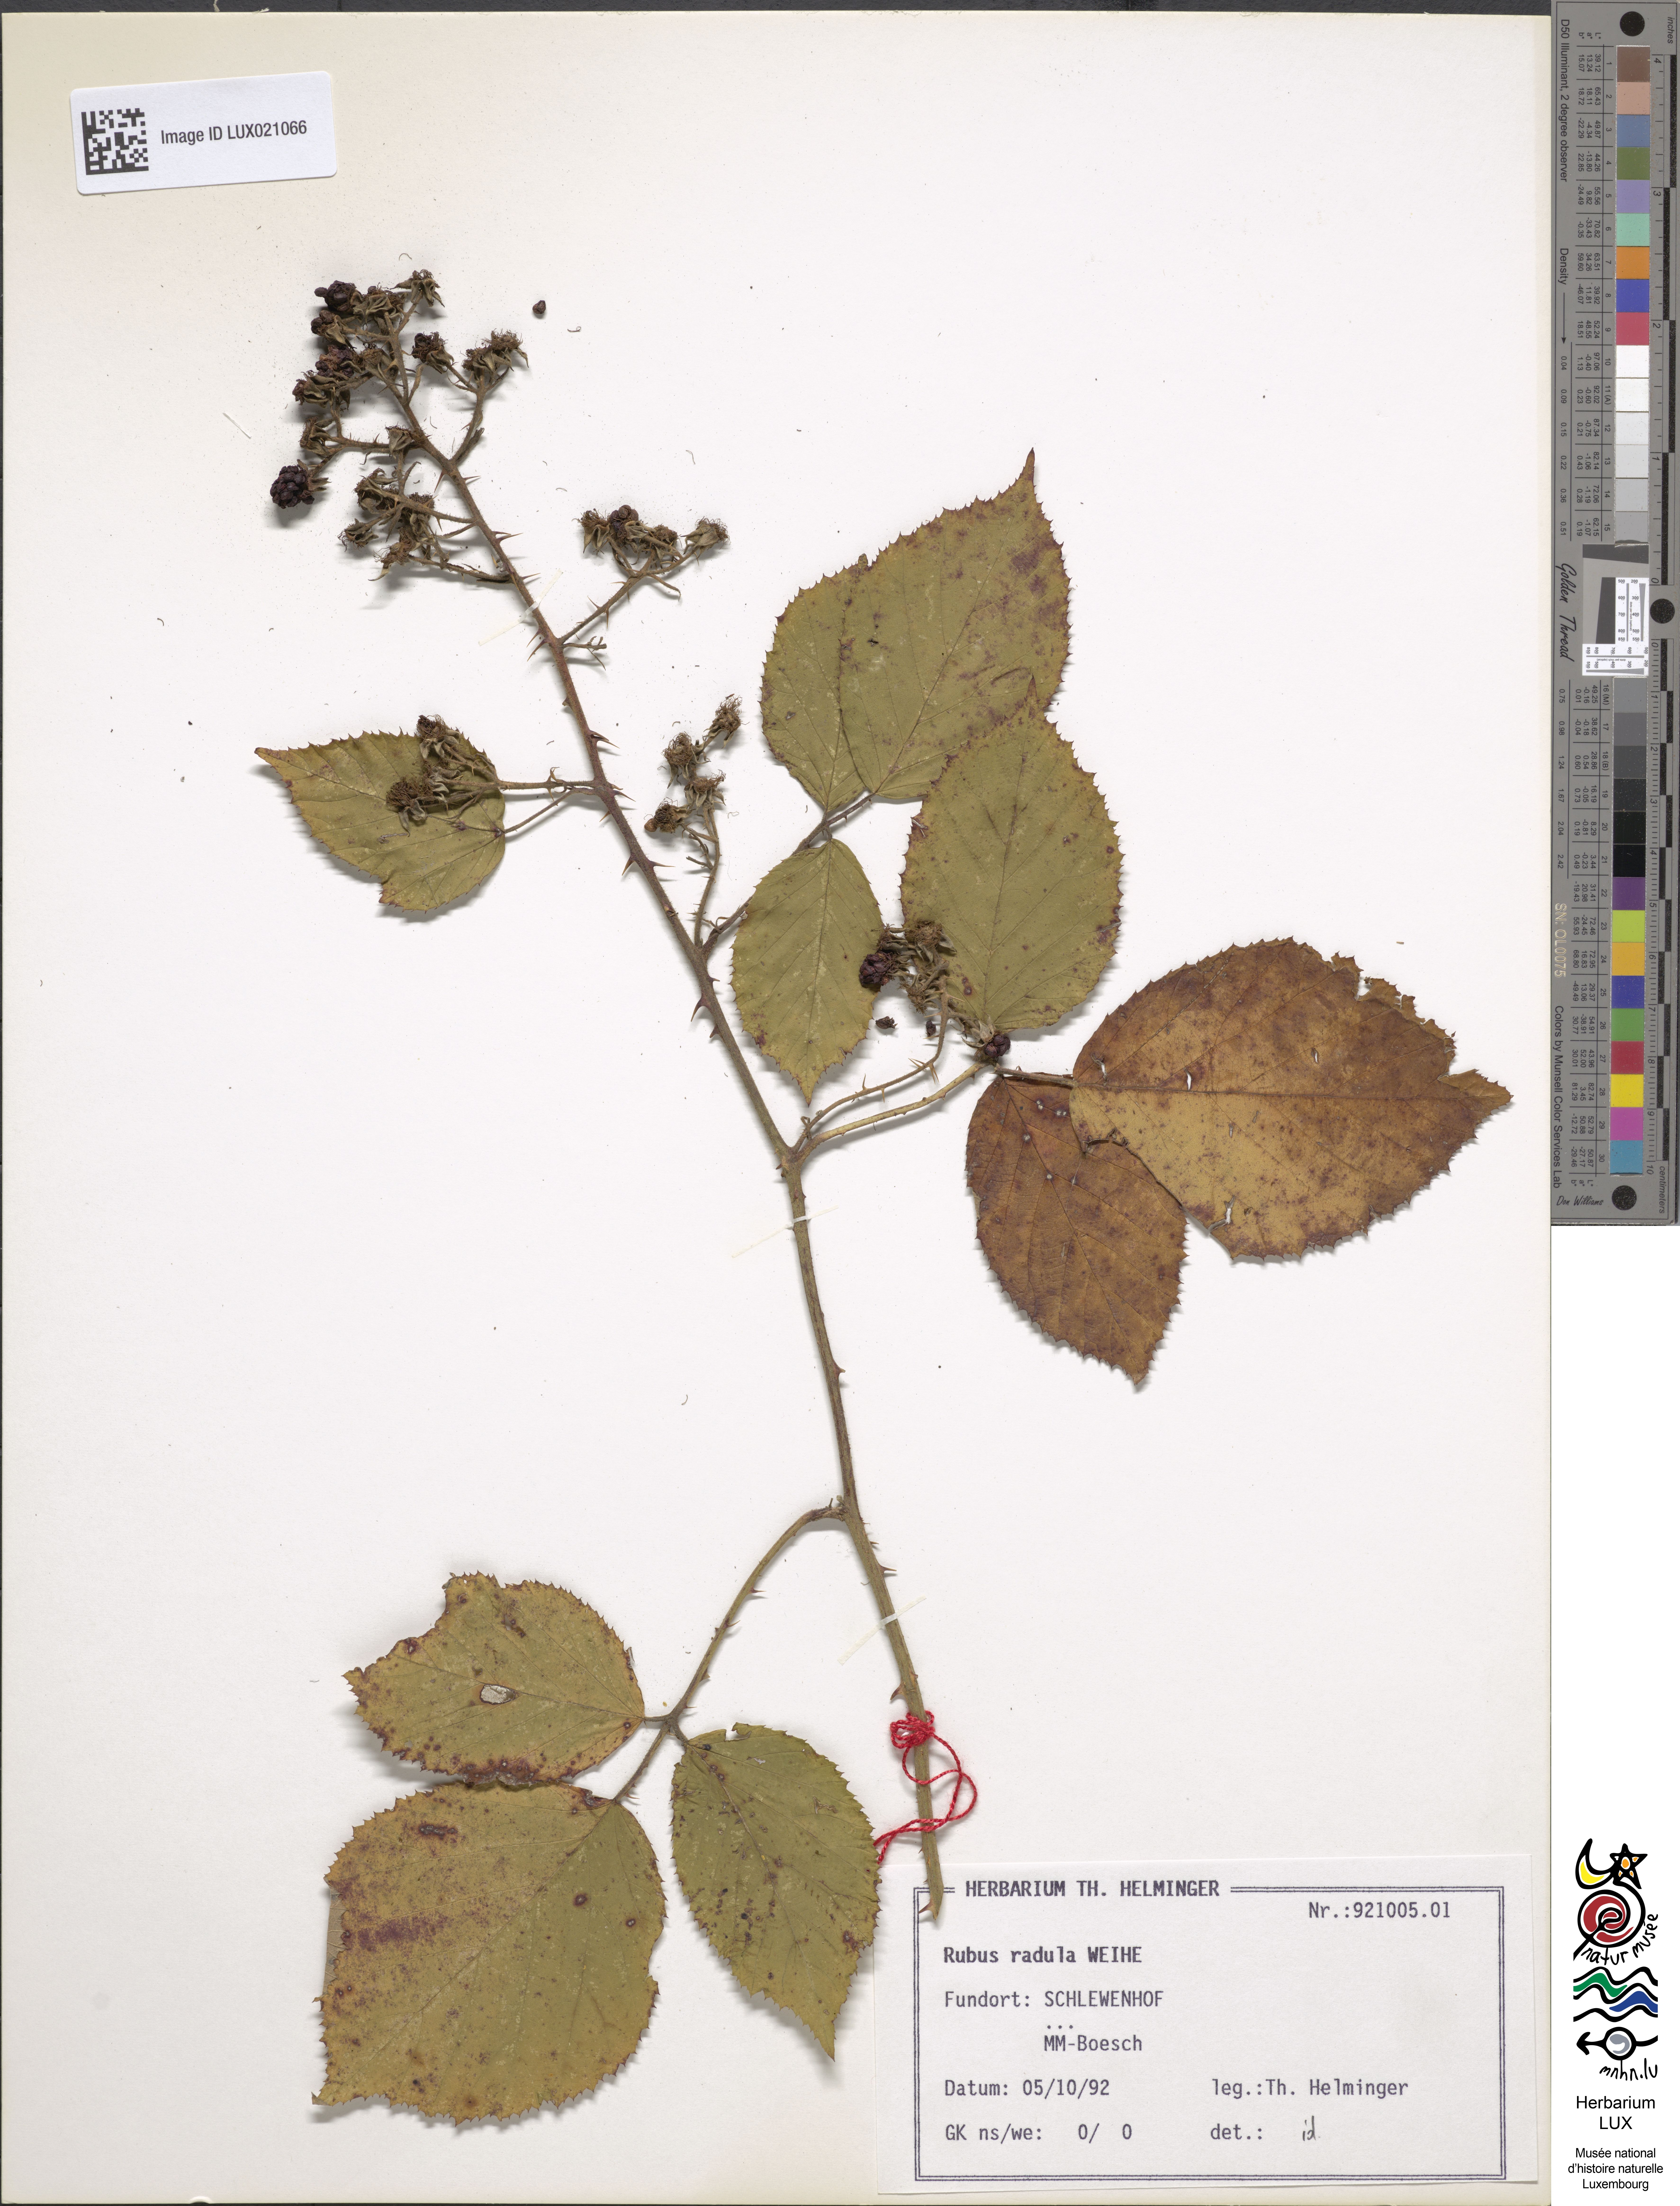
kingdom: Plantae
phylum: Tracheophyta
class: Magnoliopsida
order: Rosales
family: Rosaceae
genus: Rubus
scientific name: Rubus radula
